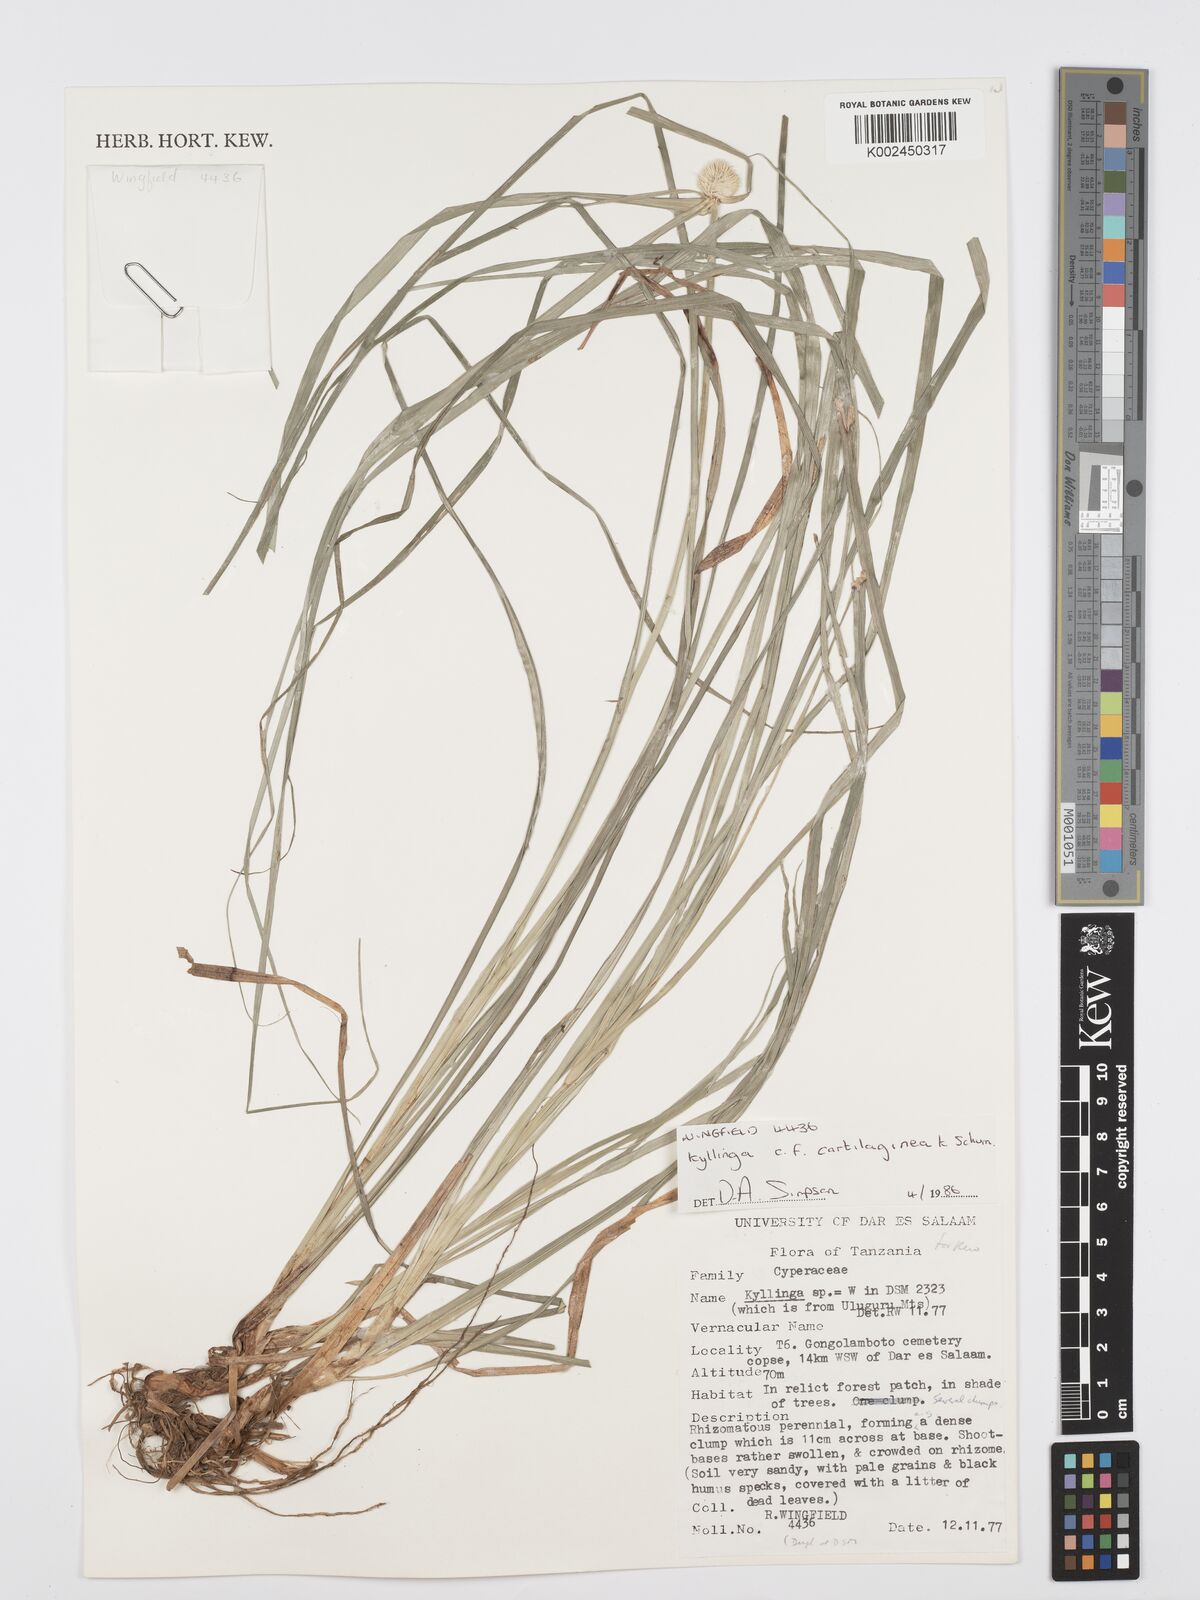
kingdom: Plantae
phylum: Tracheophyta
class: Liliopsida
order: Poales
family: Cyperaceae
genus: Cyperus
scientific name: Cyperus
